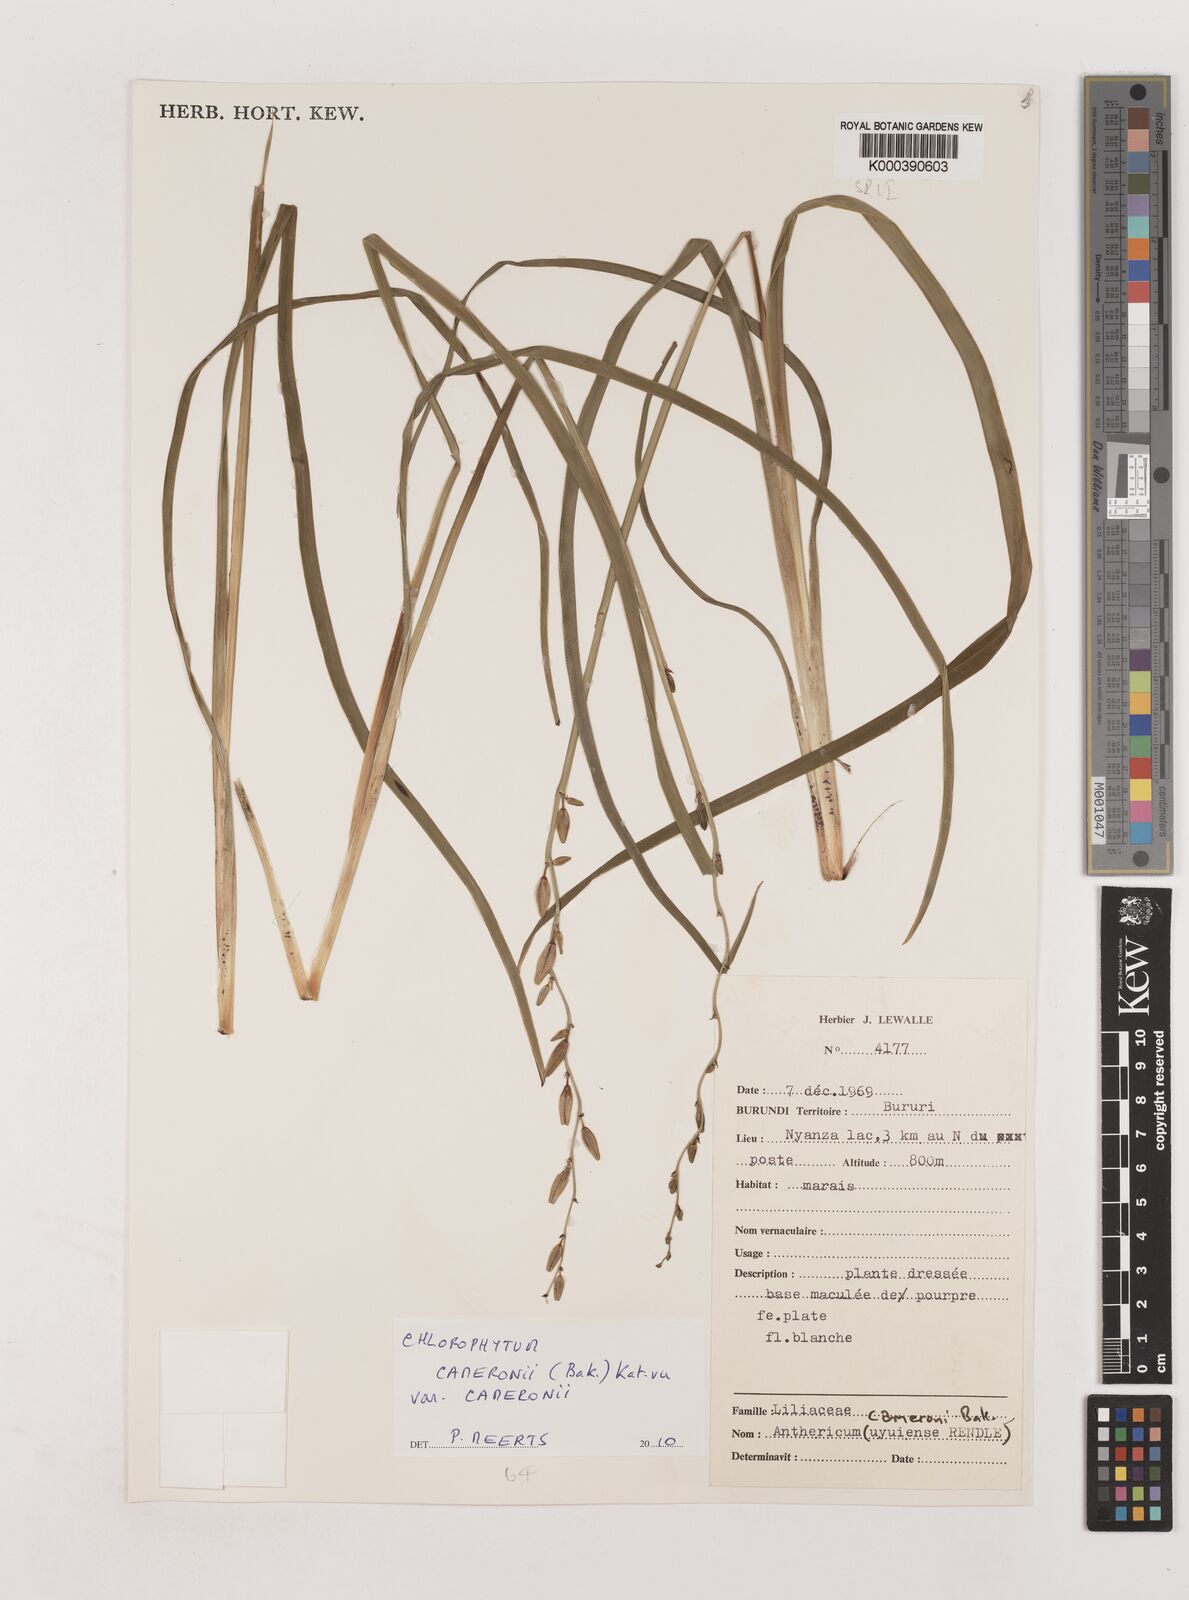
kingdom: Plantae
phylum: Tracheophyta
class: Liliopsida
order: Asparagales
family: Asparagaceae
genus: Chlorophytum
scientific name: Chlorophytum cameronii
